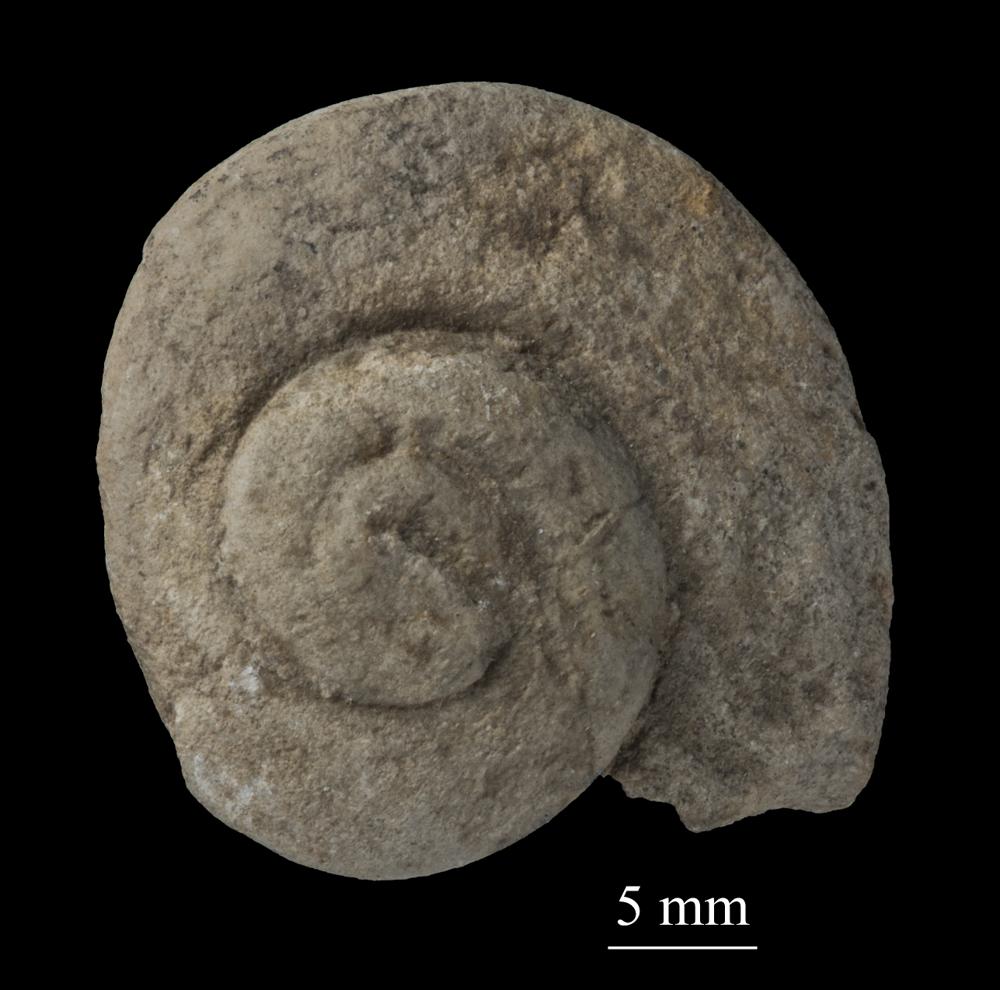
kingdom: Animalia
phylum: Mollusca
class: Gastropoda
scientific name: Gastropoda
